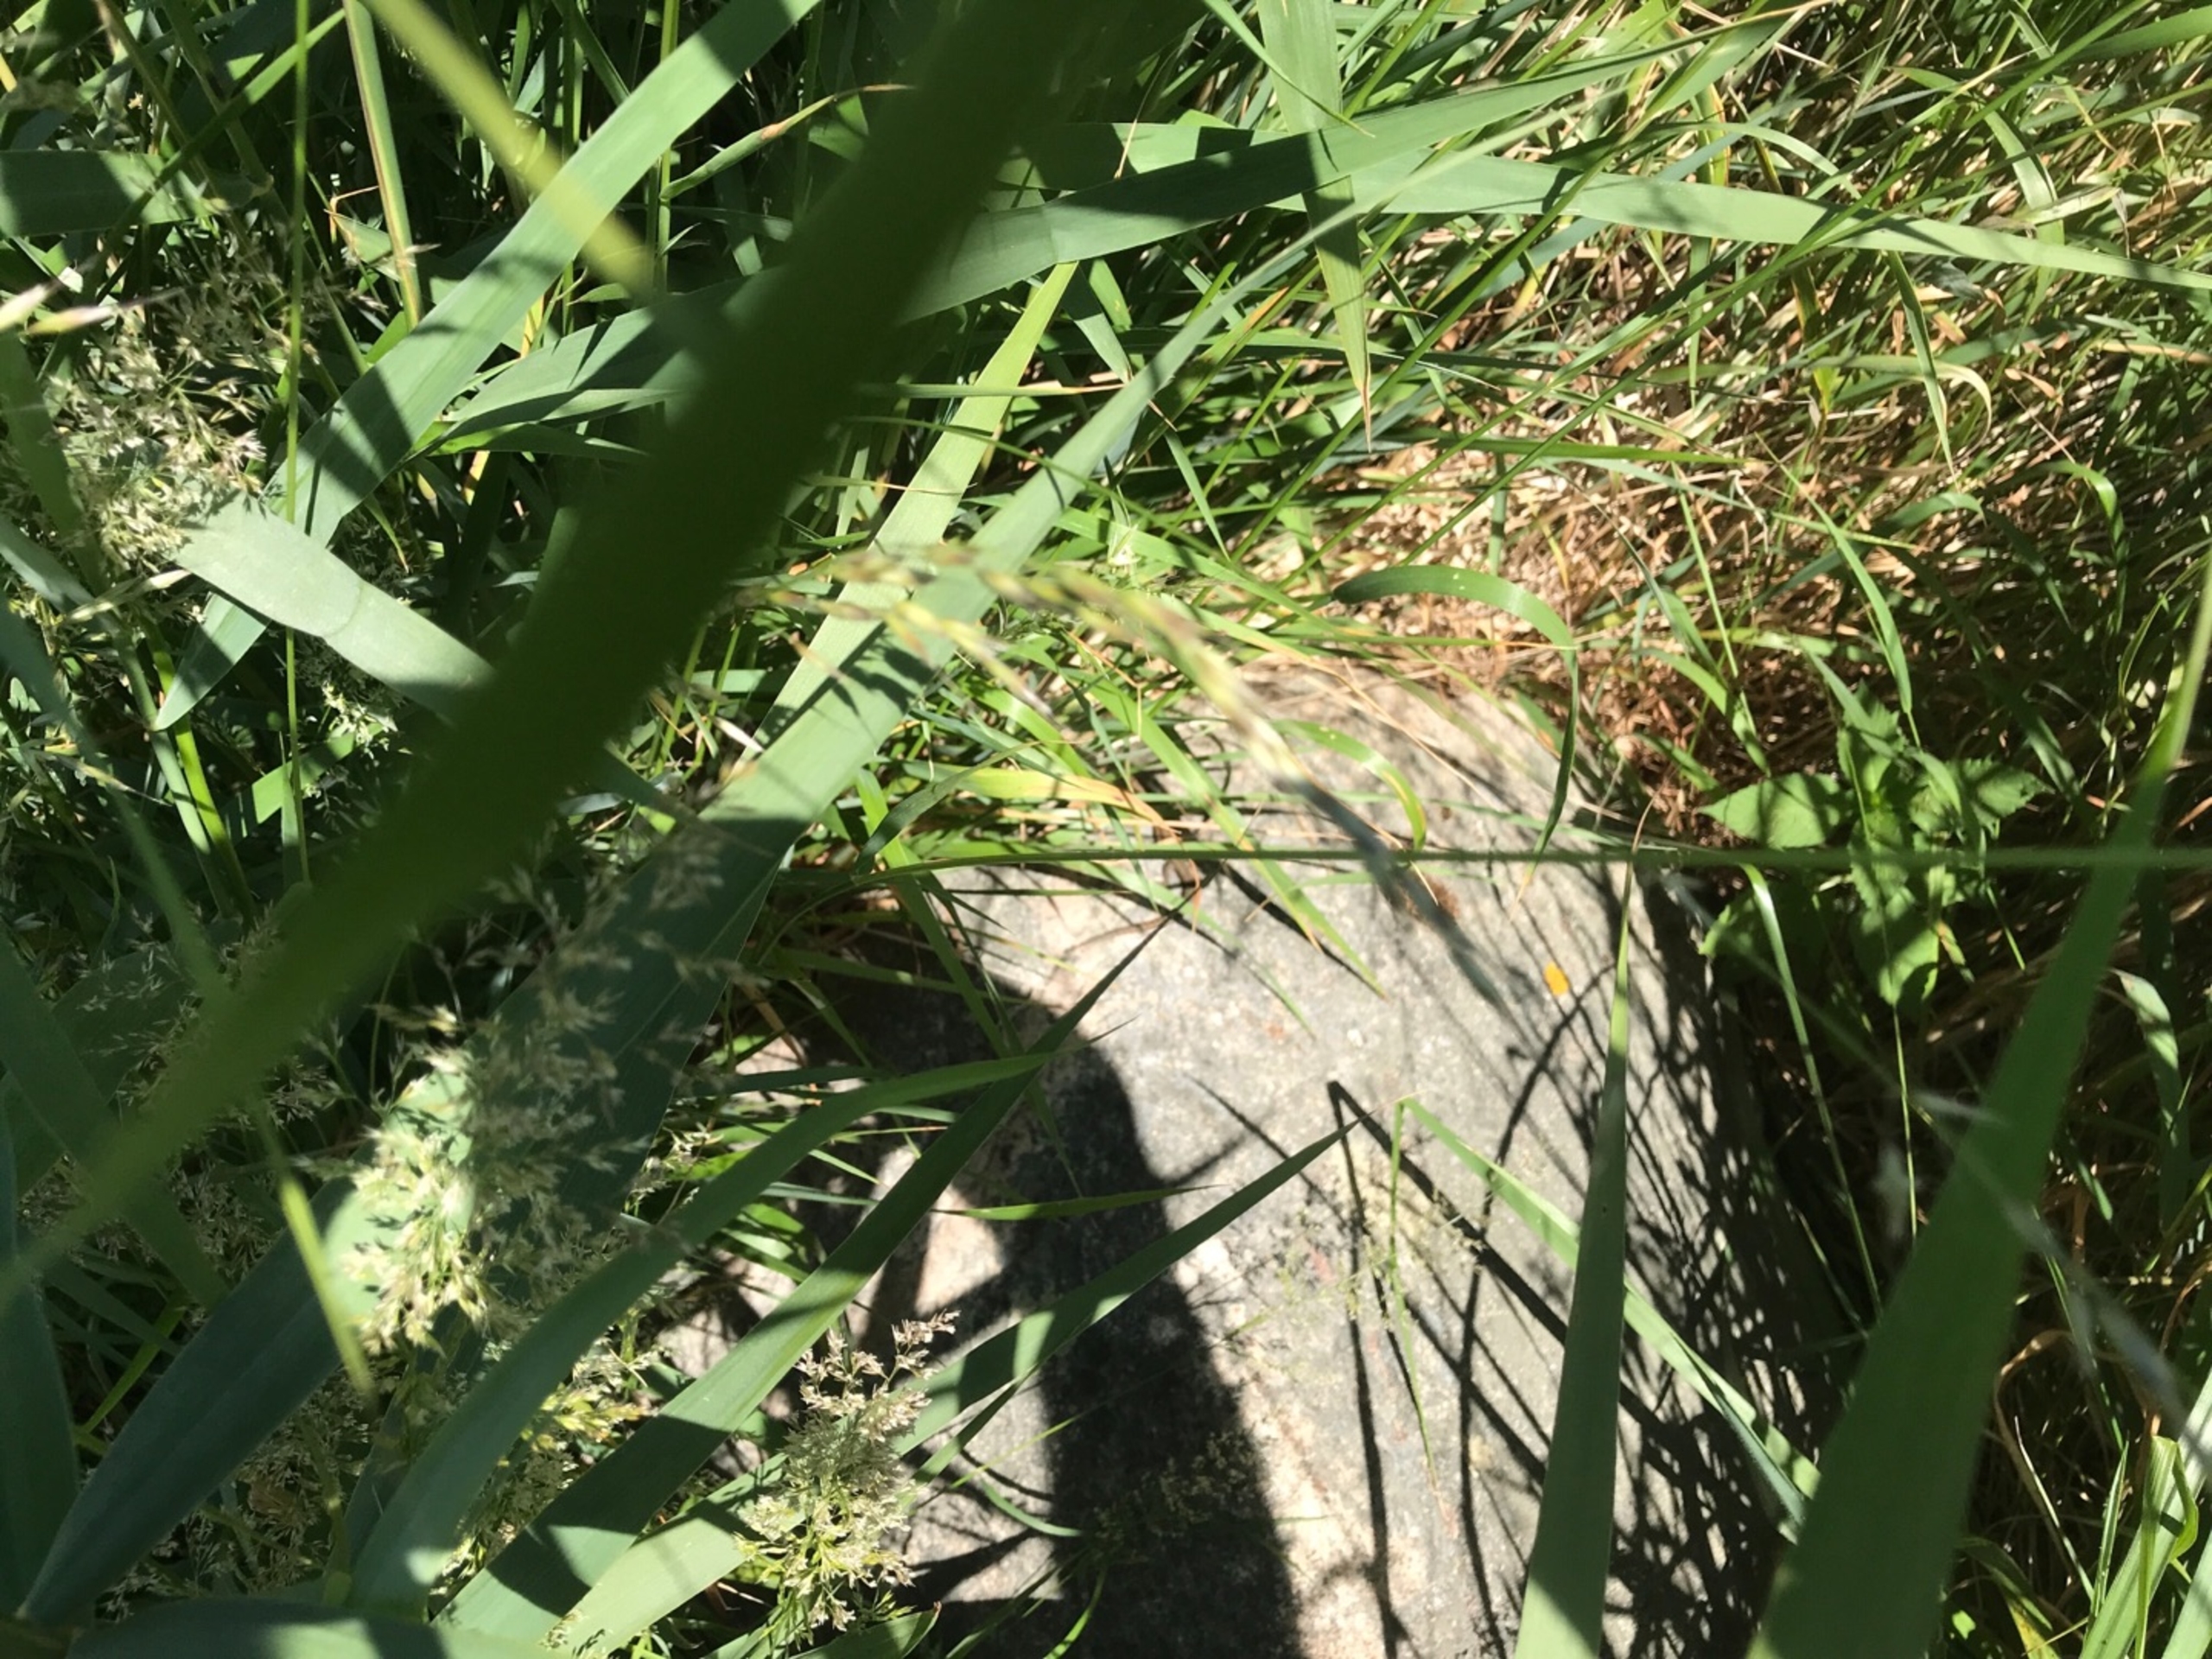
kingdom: Animalia
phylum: Chordata
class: Squamata
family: Lacertidae
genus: Zootoca
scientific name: Zootoca vivipara
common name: Skovfirben
